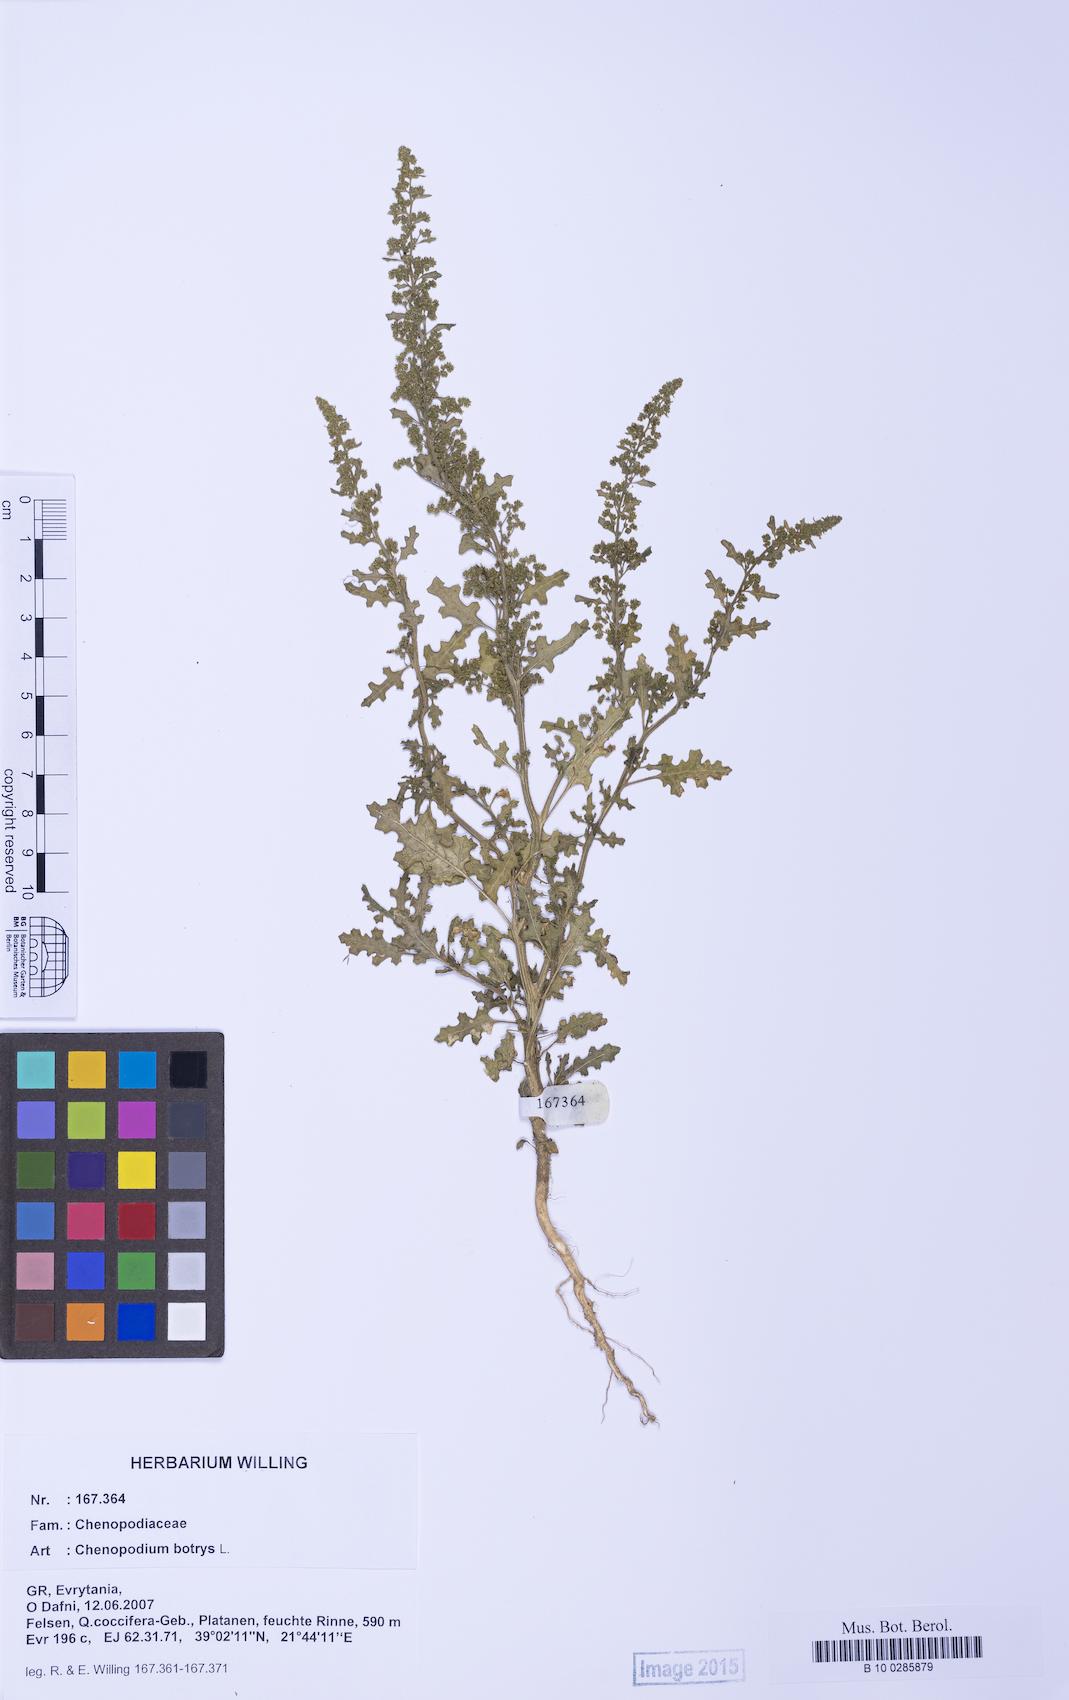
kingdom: Plantae
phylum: Tracheophyta
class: Magnoliopsida
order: Caryophyllales
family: Amaranthaceae
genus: Dysphania
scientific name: Dysphania botrys
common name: Feather-geranium
